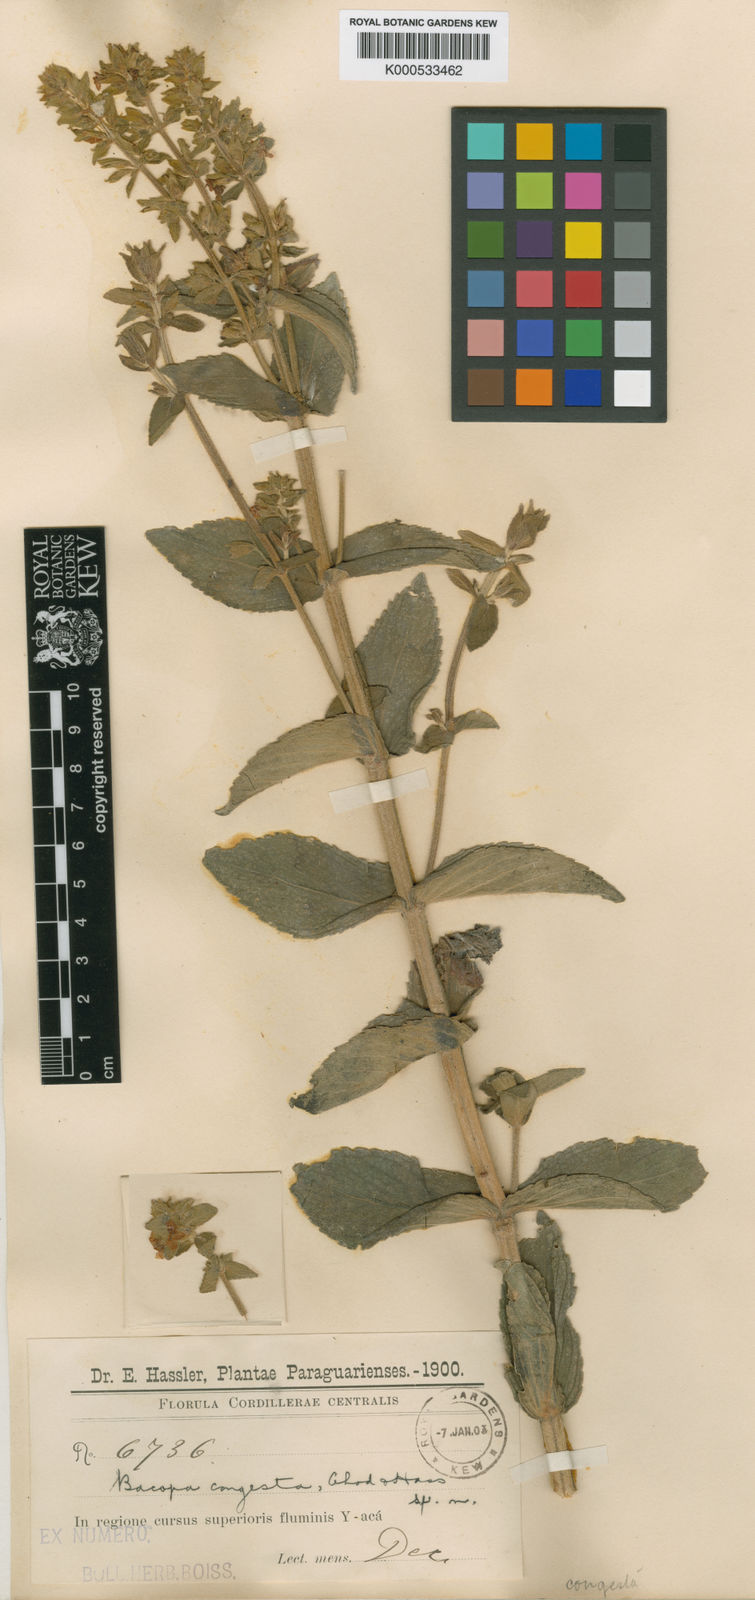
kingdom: Plantae
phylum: Tracheophyta
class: Magnoliopsida
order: Lamiales
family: Plantaginaceae
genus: Bacopa
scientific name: Bacopa congesta
